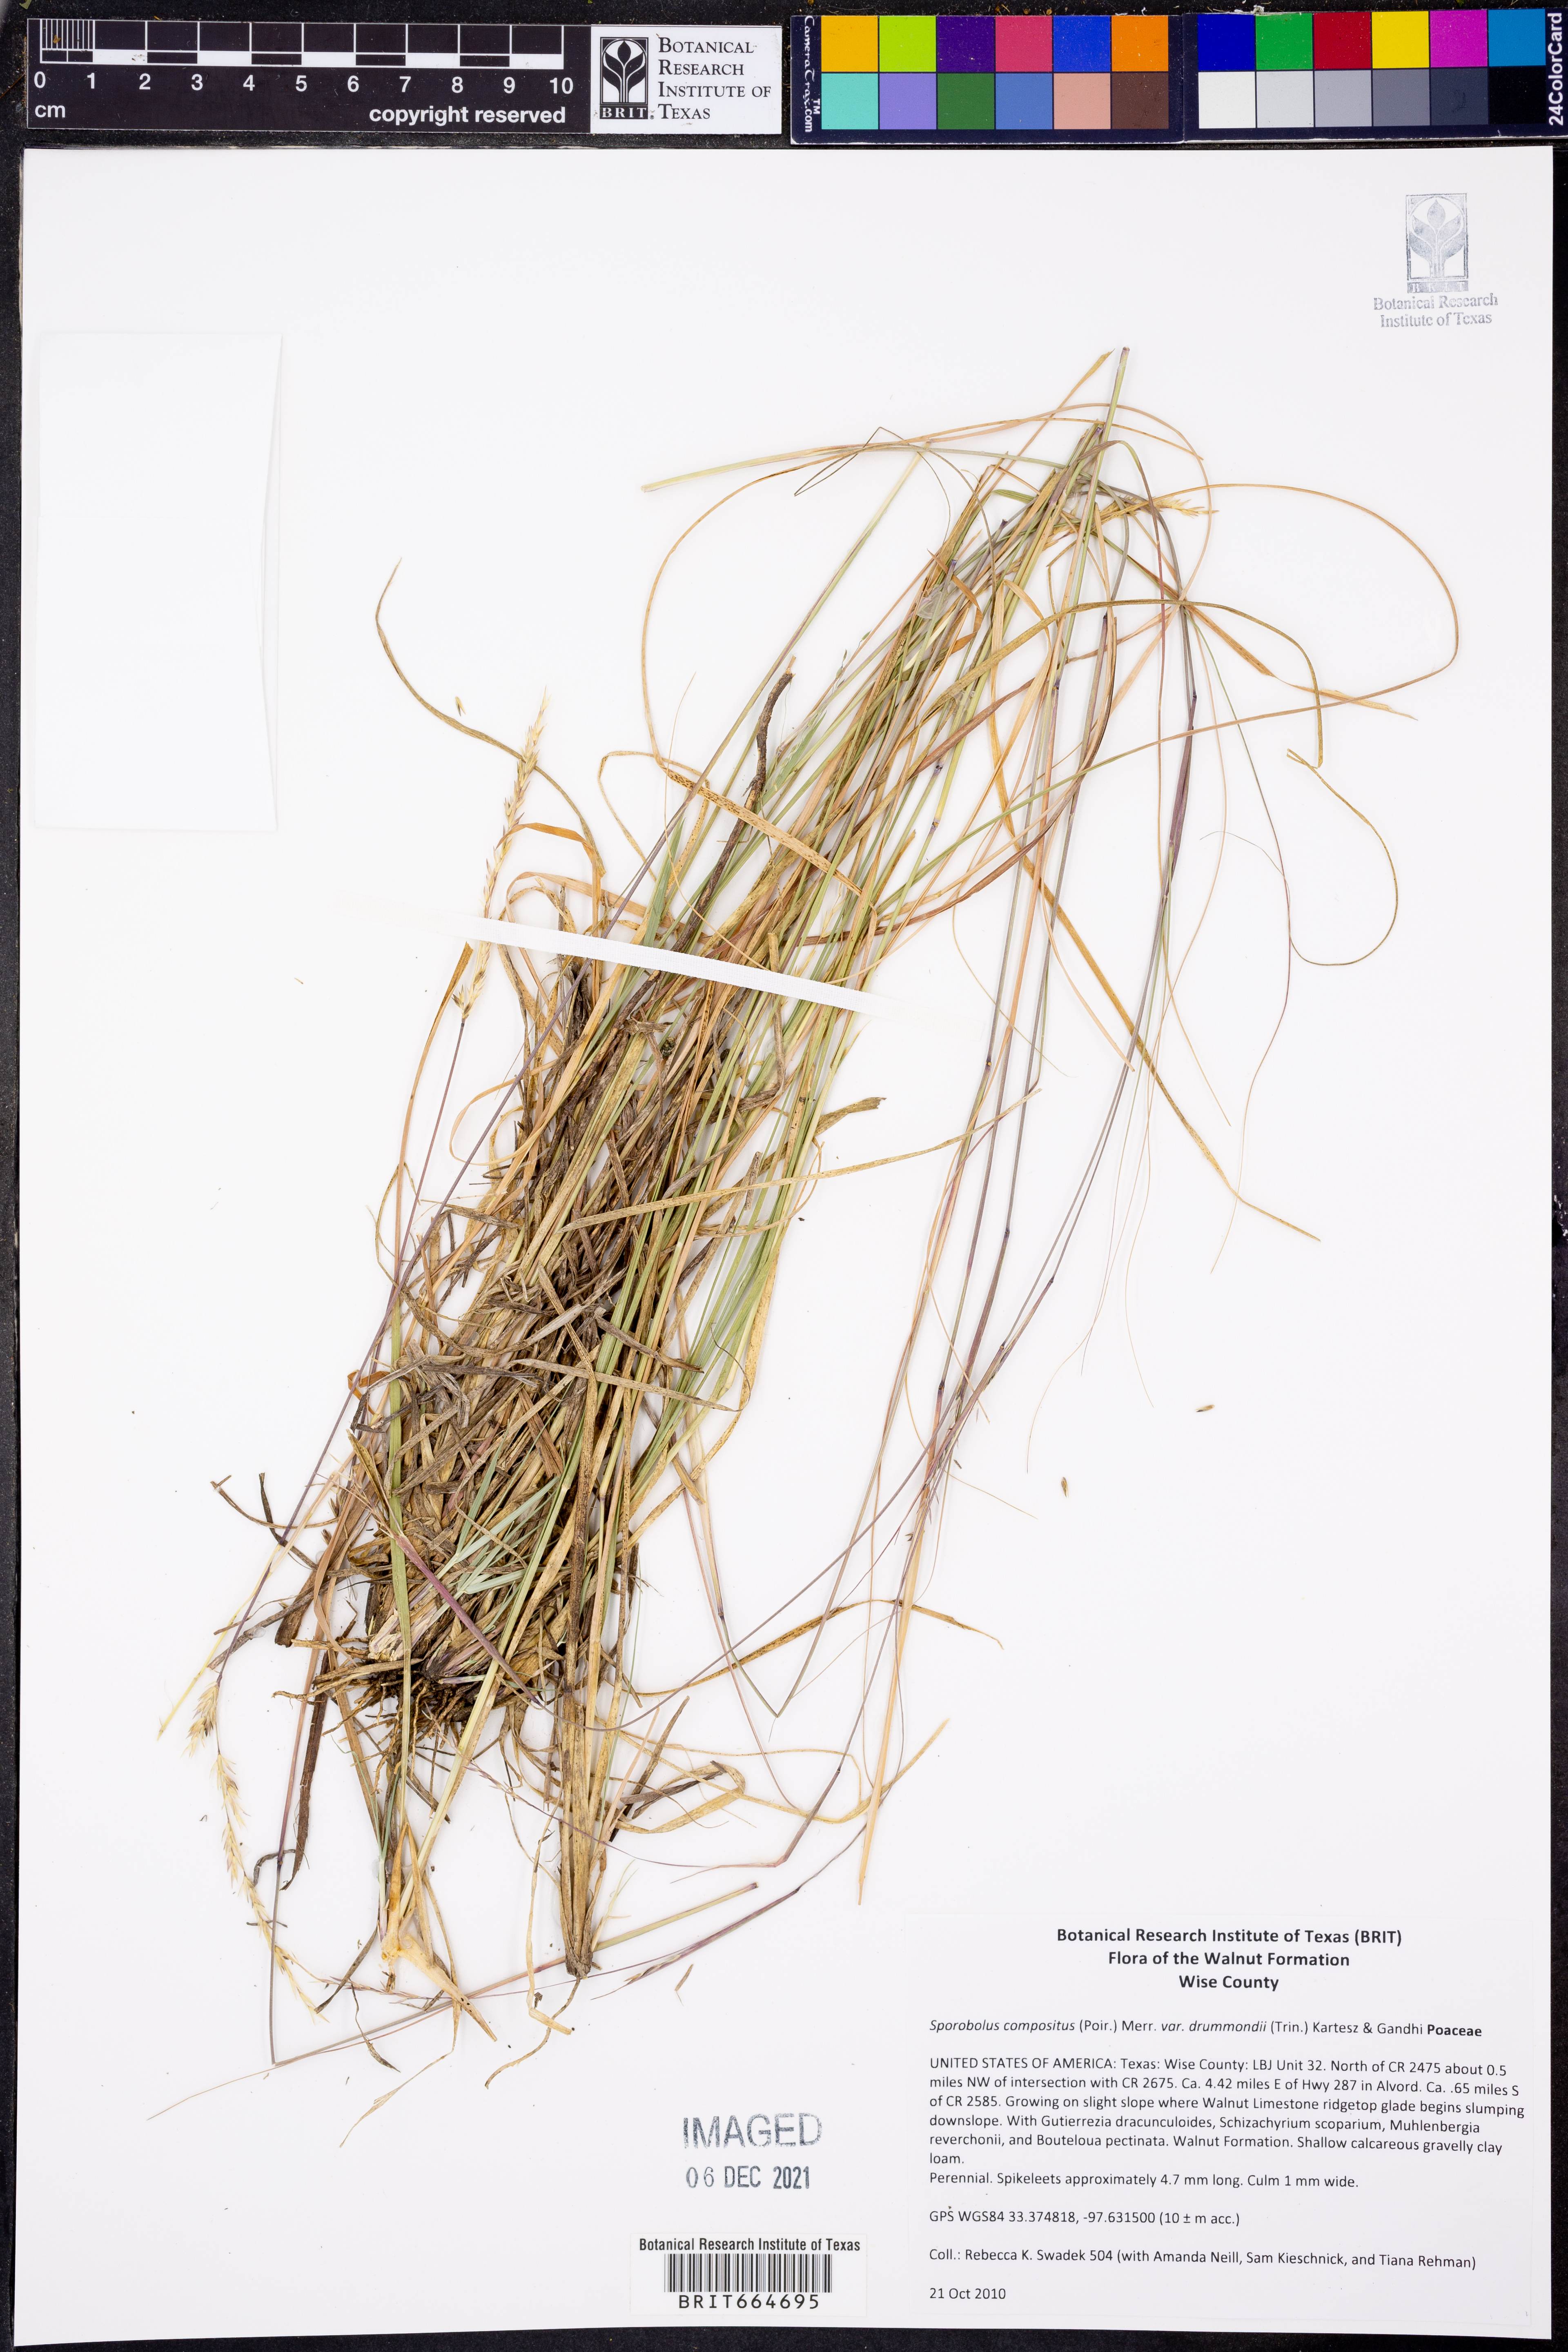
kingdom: Plantae
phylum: Tracheophyta
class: Liliopsida
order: Poales
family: Poaceae
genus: Sporobolus
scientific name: Sporobolus compositus
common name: Rough dropseed
